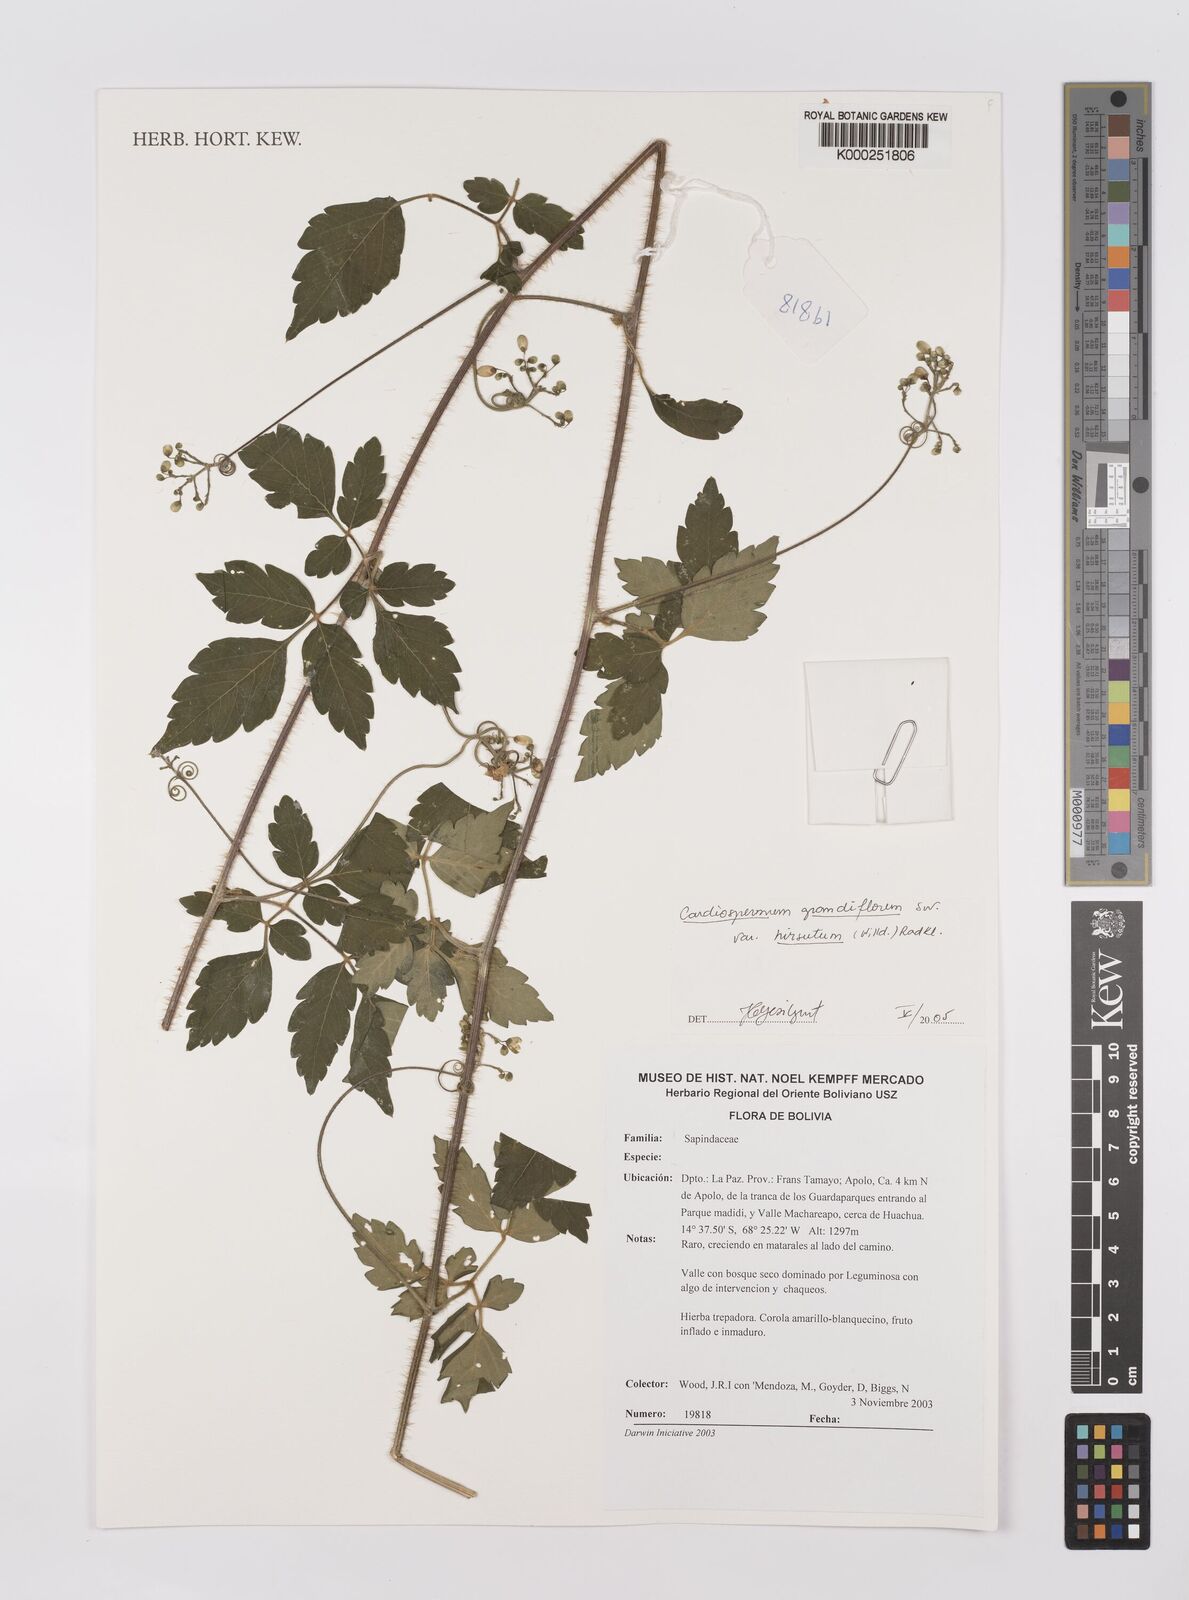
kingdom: Plantae
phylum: Tracheophyta
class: Magnoliopsida
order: Sapindales
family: Sapindaceae
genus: Cardiospermum
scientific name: Cardiospermum grandiflorum
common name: Balloon vine
